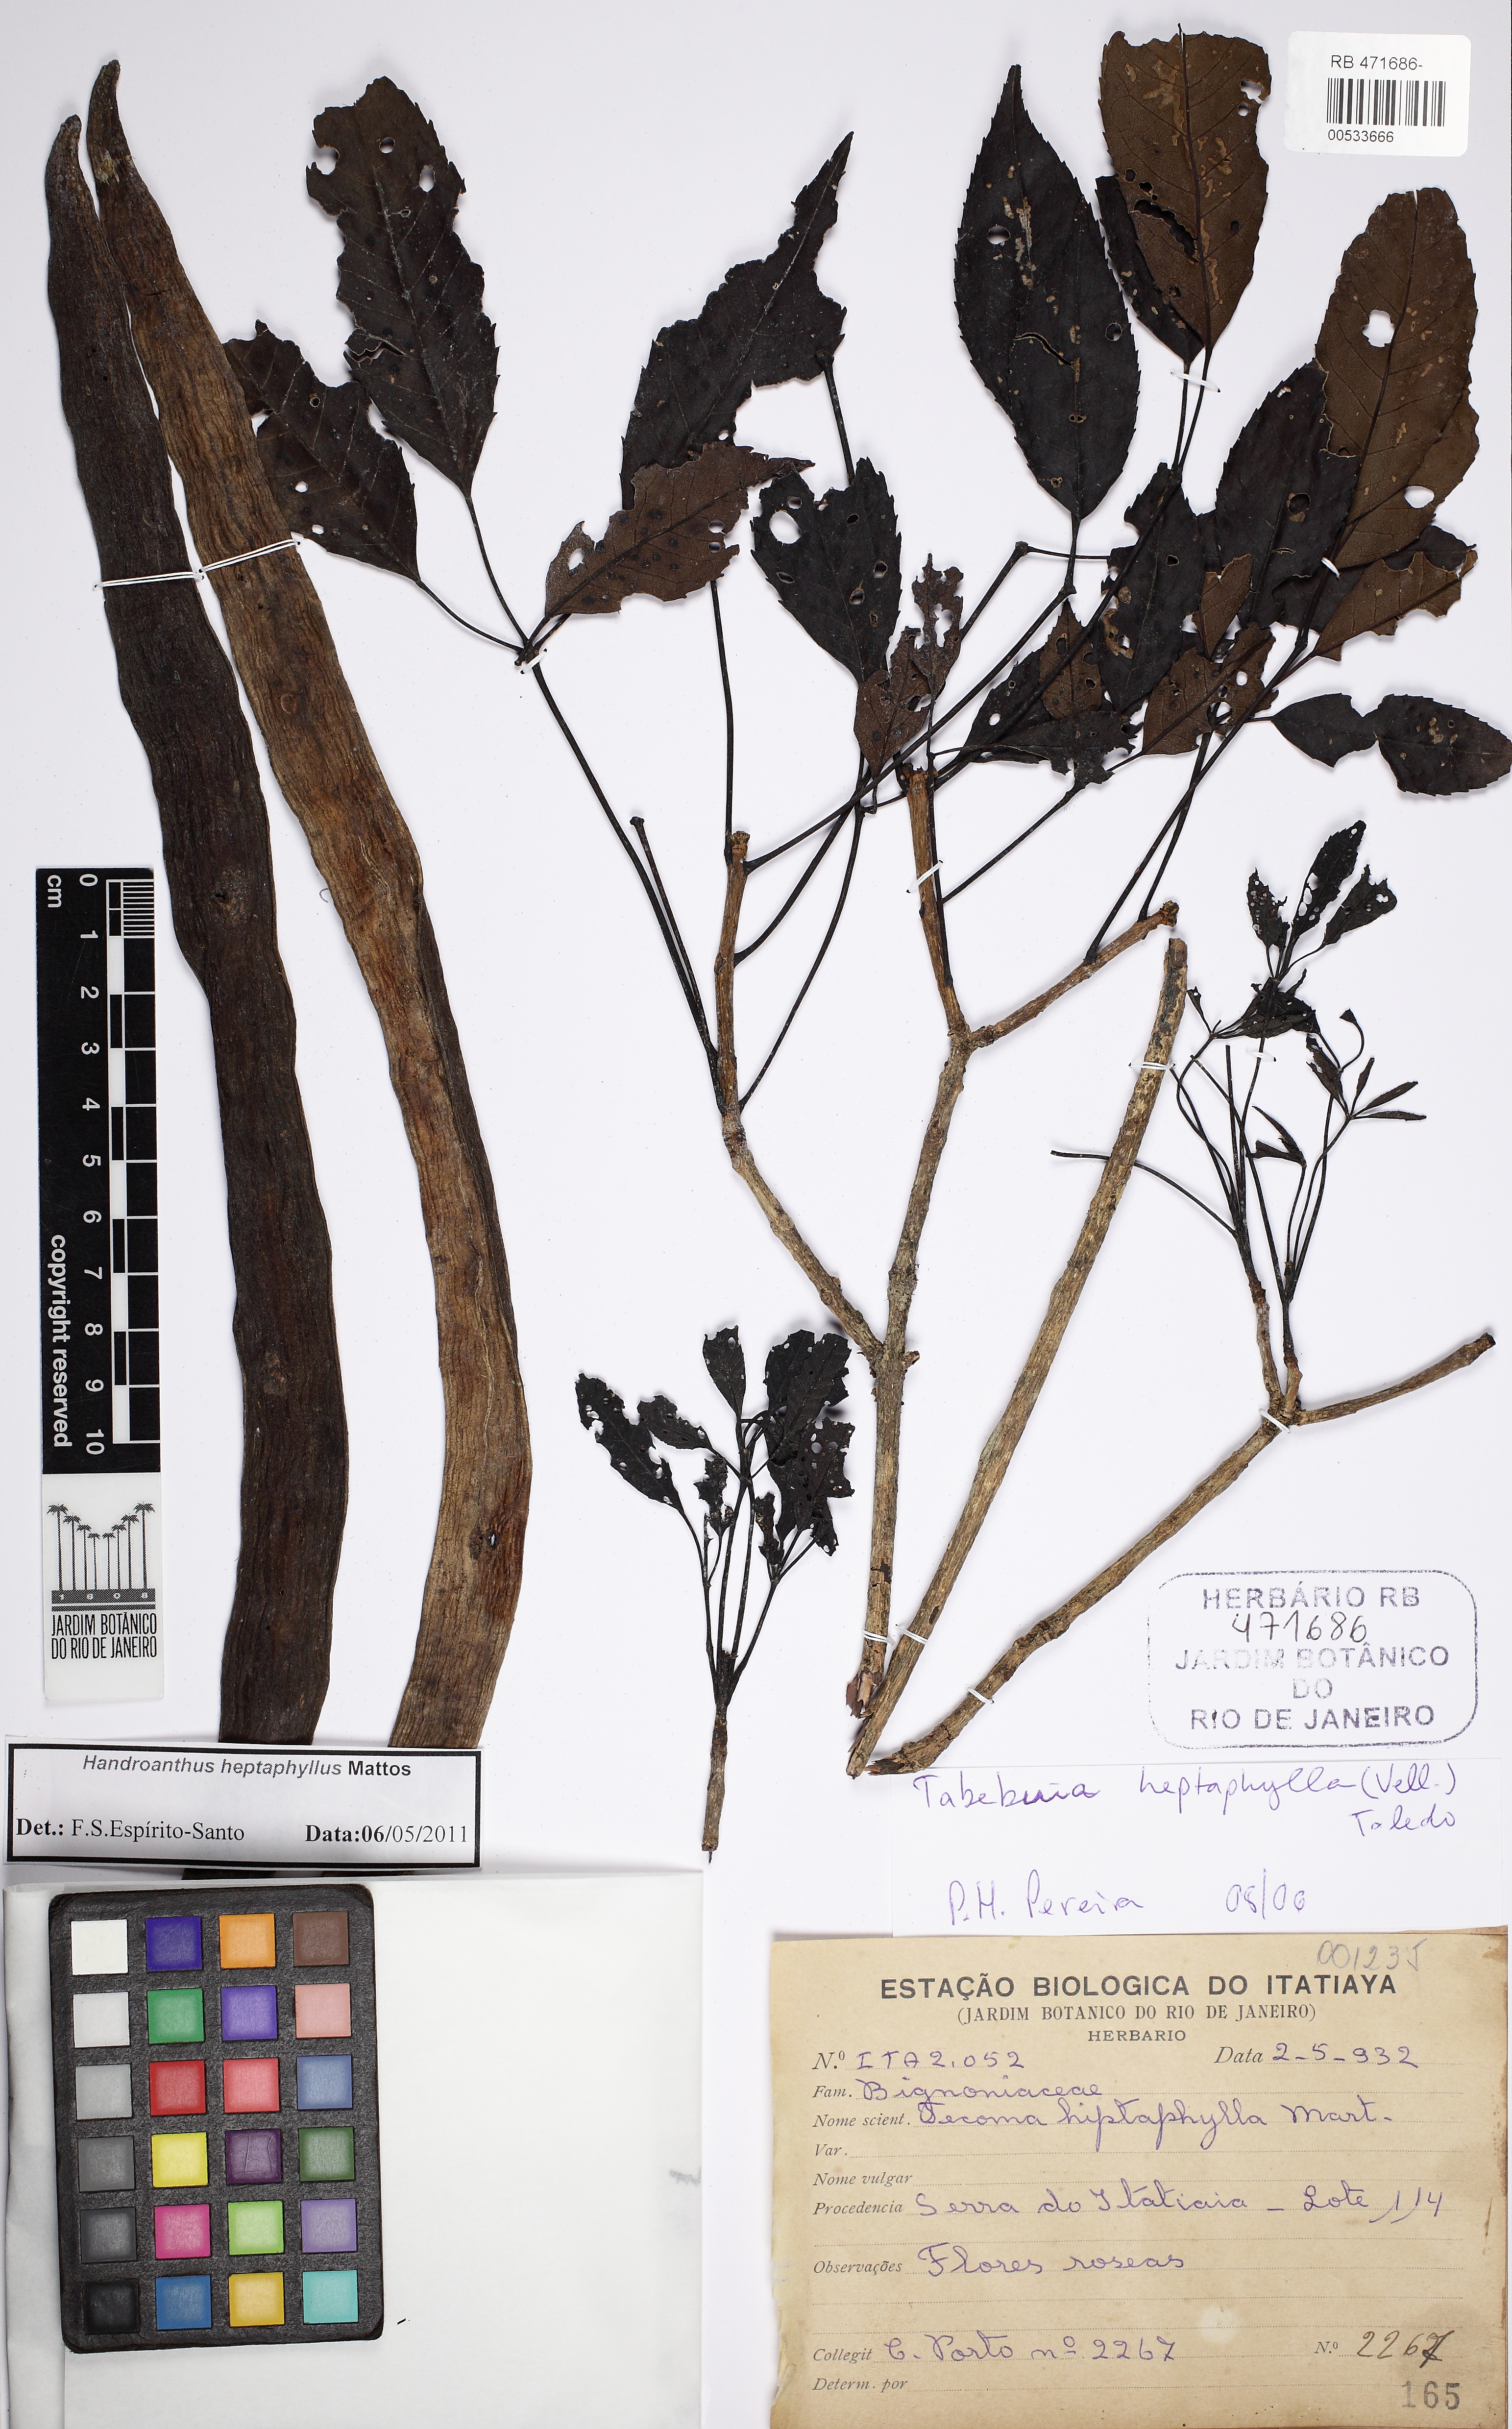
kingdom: Plantae
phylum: Tracheophyta
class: Magnoliopsida
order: Lamiales
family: Bignoniaceae
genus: Handroanthus
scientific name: Handroanthus heptaphyllus
